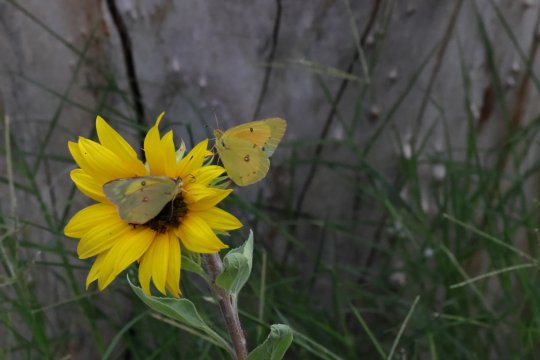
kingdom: Animalia
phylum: Arthropoda
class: Insecta
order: Lepidoptera
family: Pieridae
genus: Colias
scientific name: Colias eurytheme
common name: Orange Sulphur
